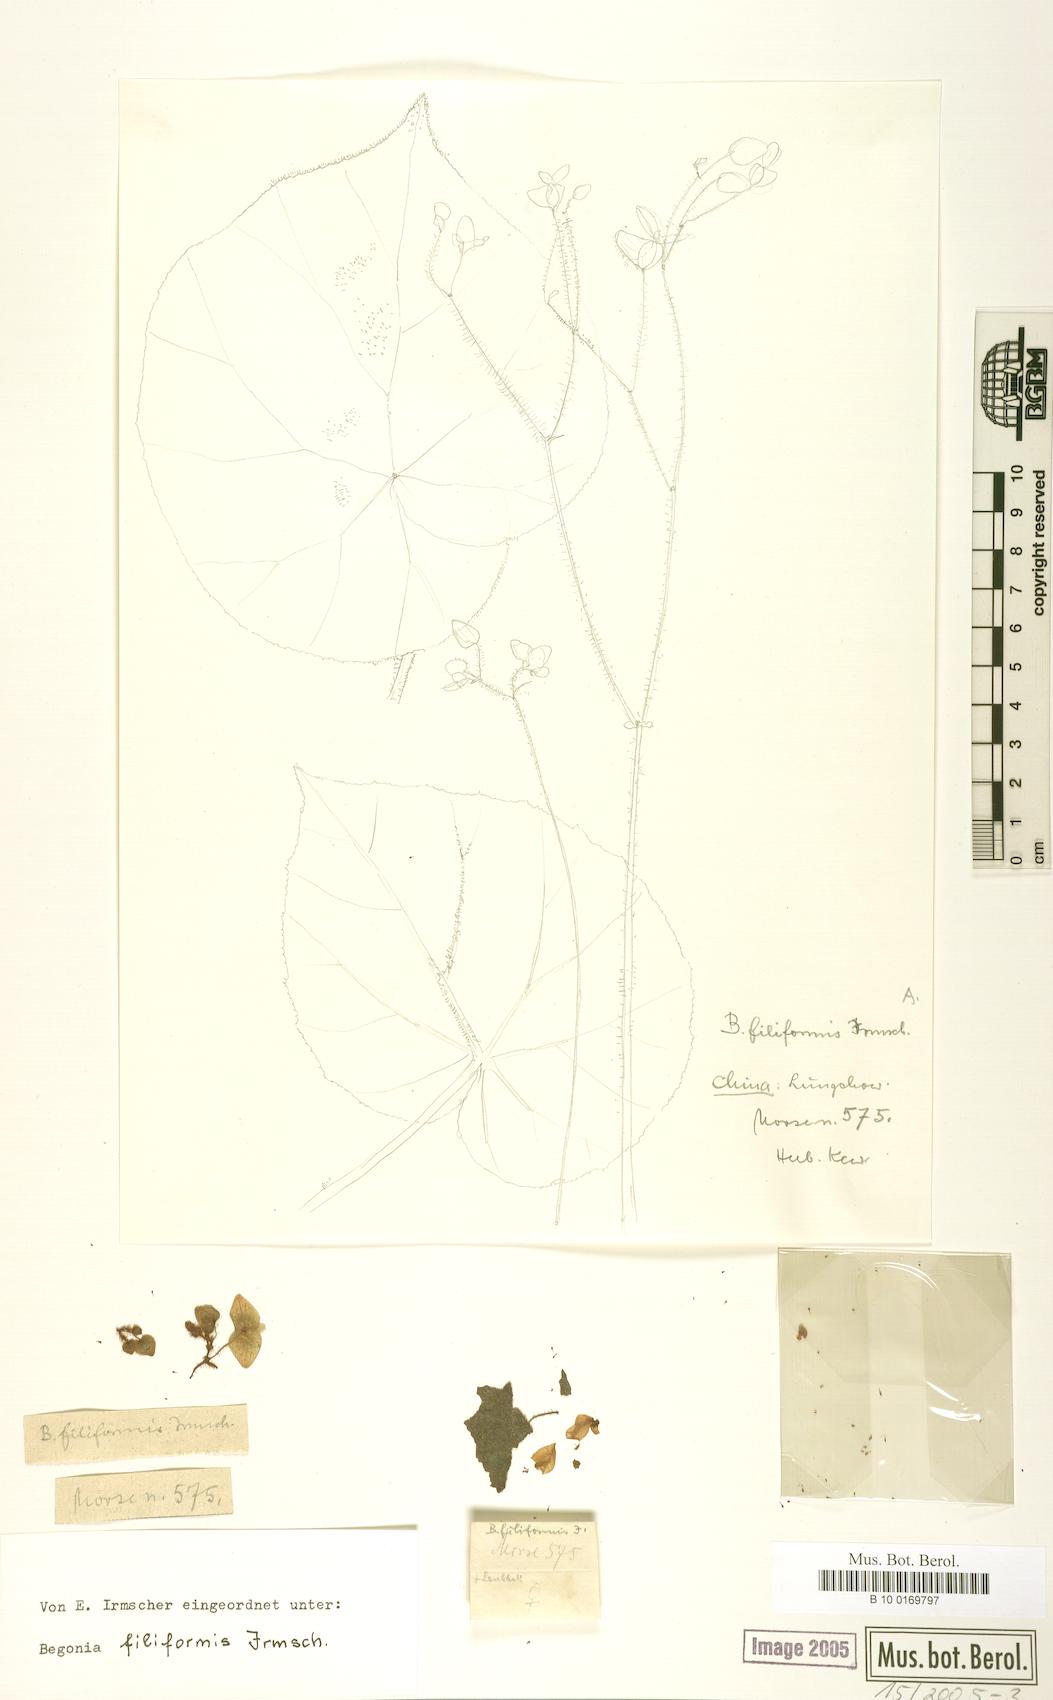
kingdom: Plantae
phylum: Tracheophyta
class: Magnoliopsida
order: Cucurbitales
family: Begoniaceae
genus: Begonia
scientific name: Begonia filiformis
